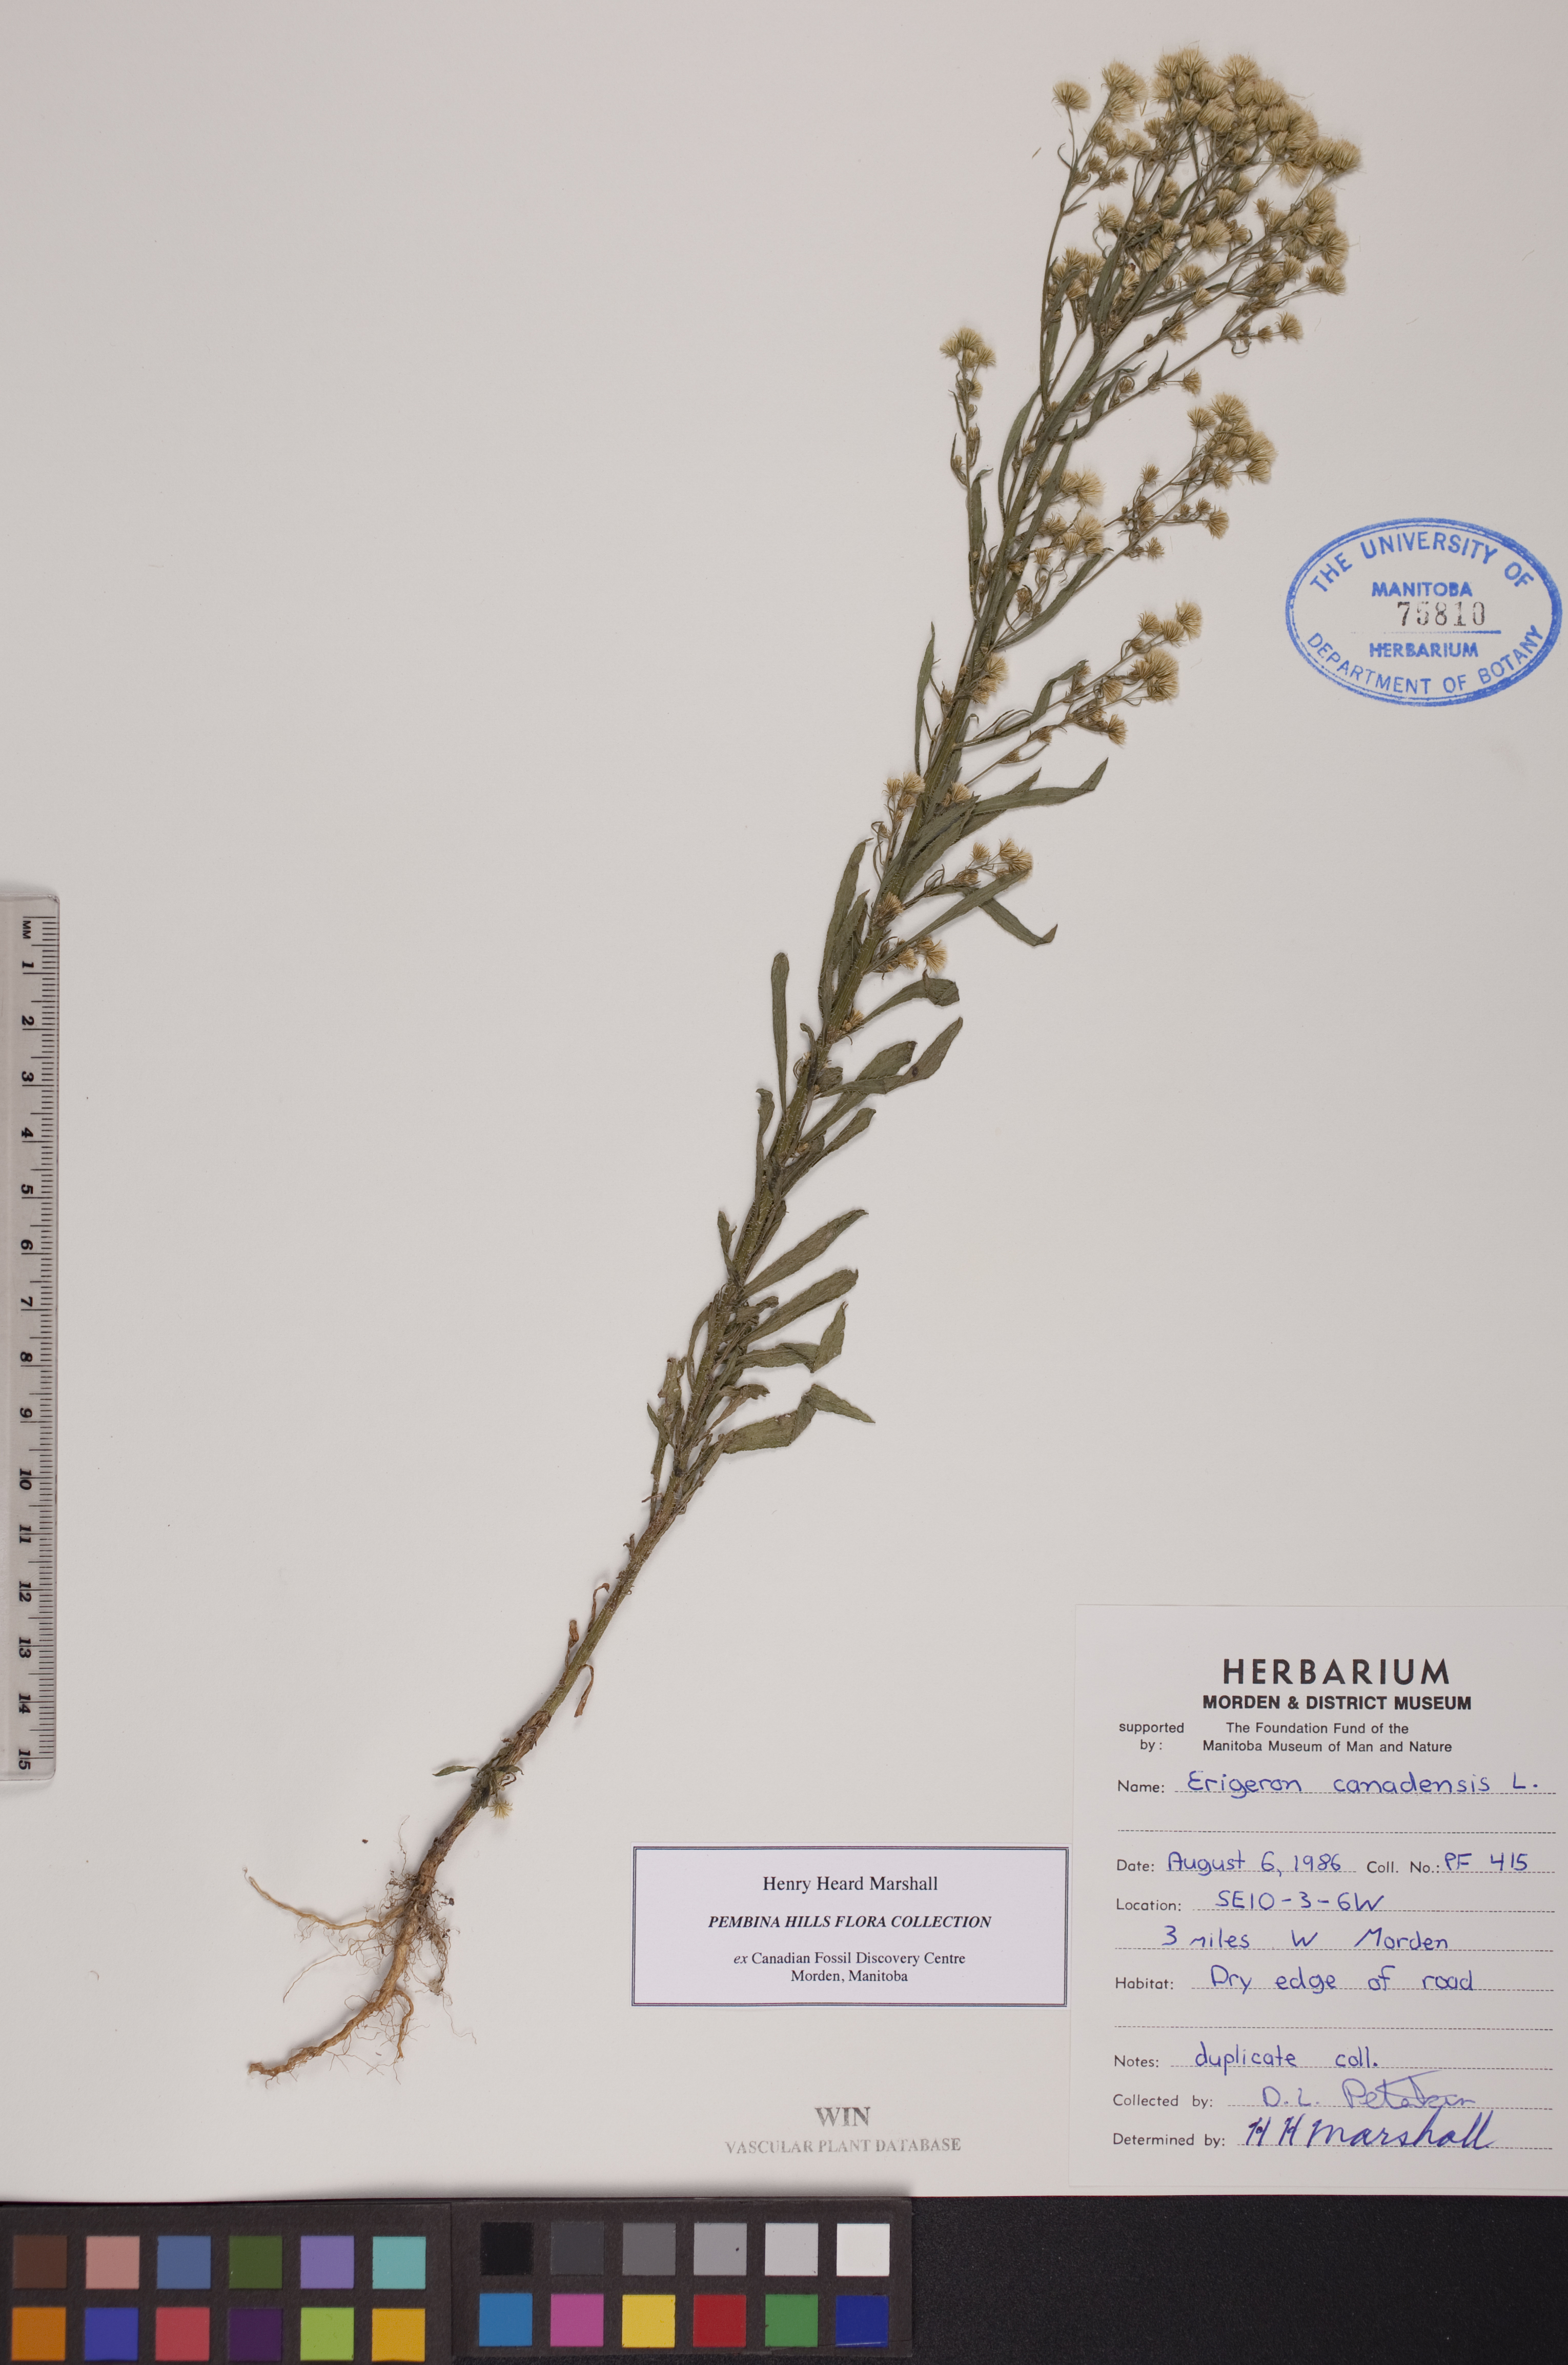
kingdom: Plantae
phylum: Tracheophyta
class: Magnoliopsida
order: Asterales
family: Asteraceae
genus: Erigeron
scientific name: Erigeron canadensis
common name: Canadian fleabane
